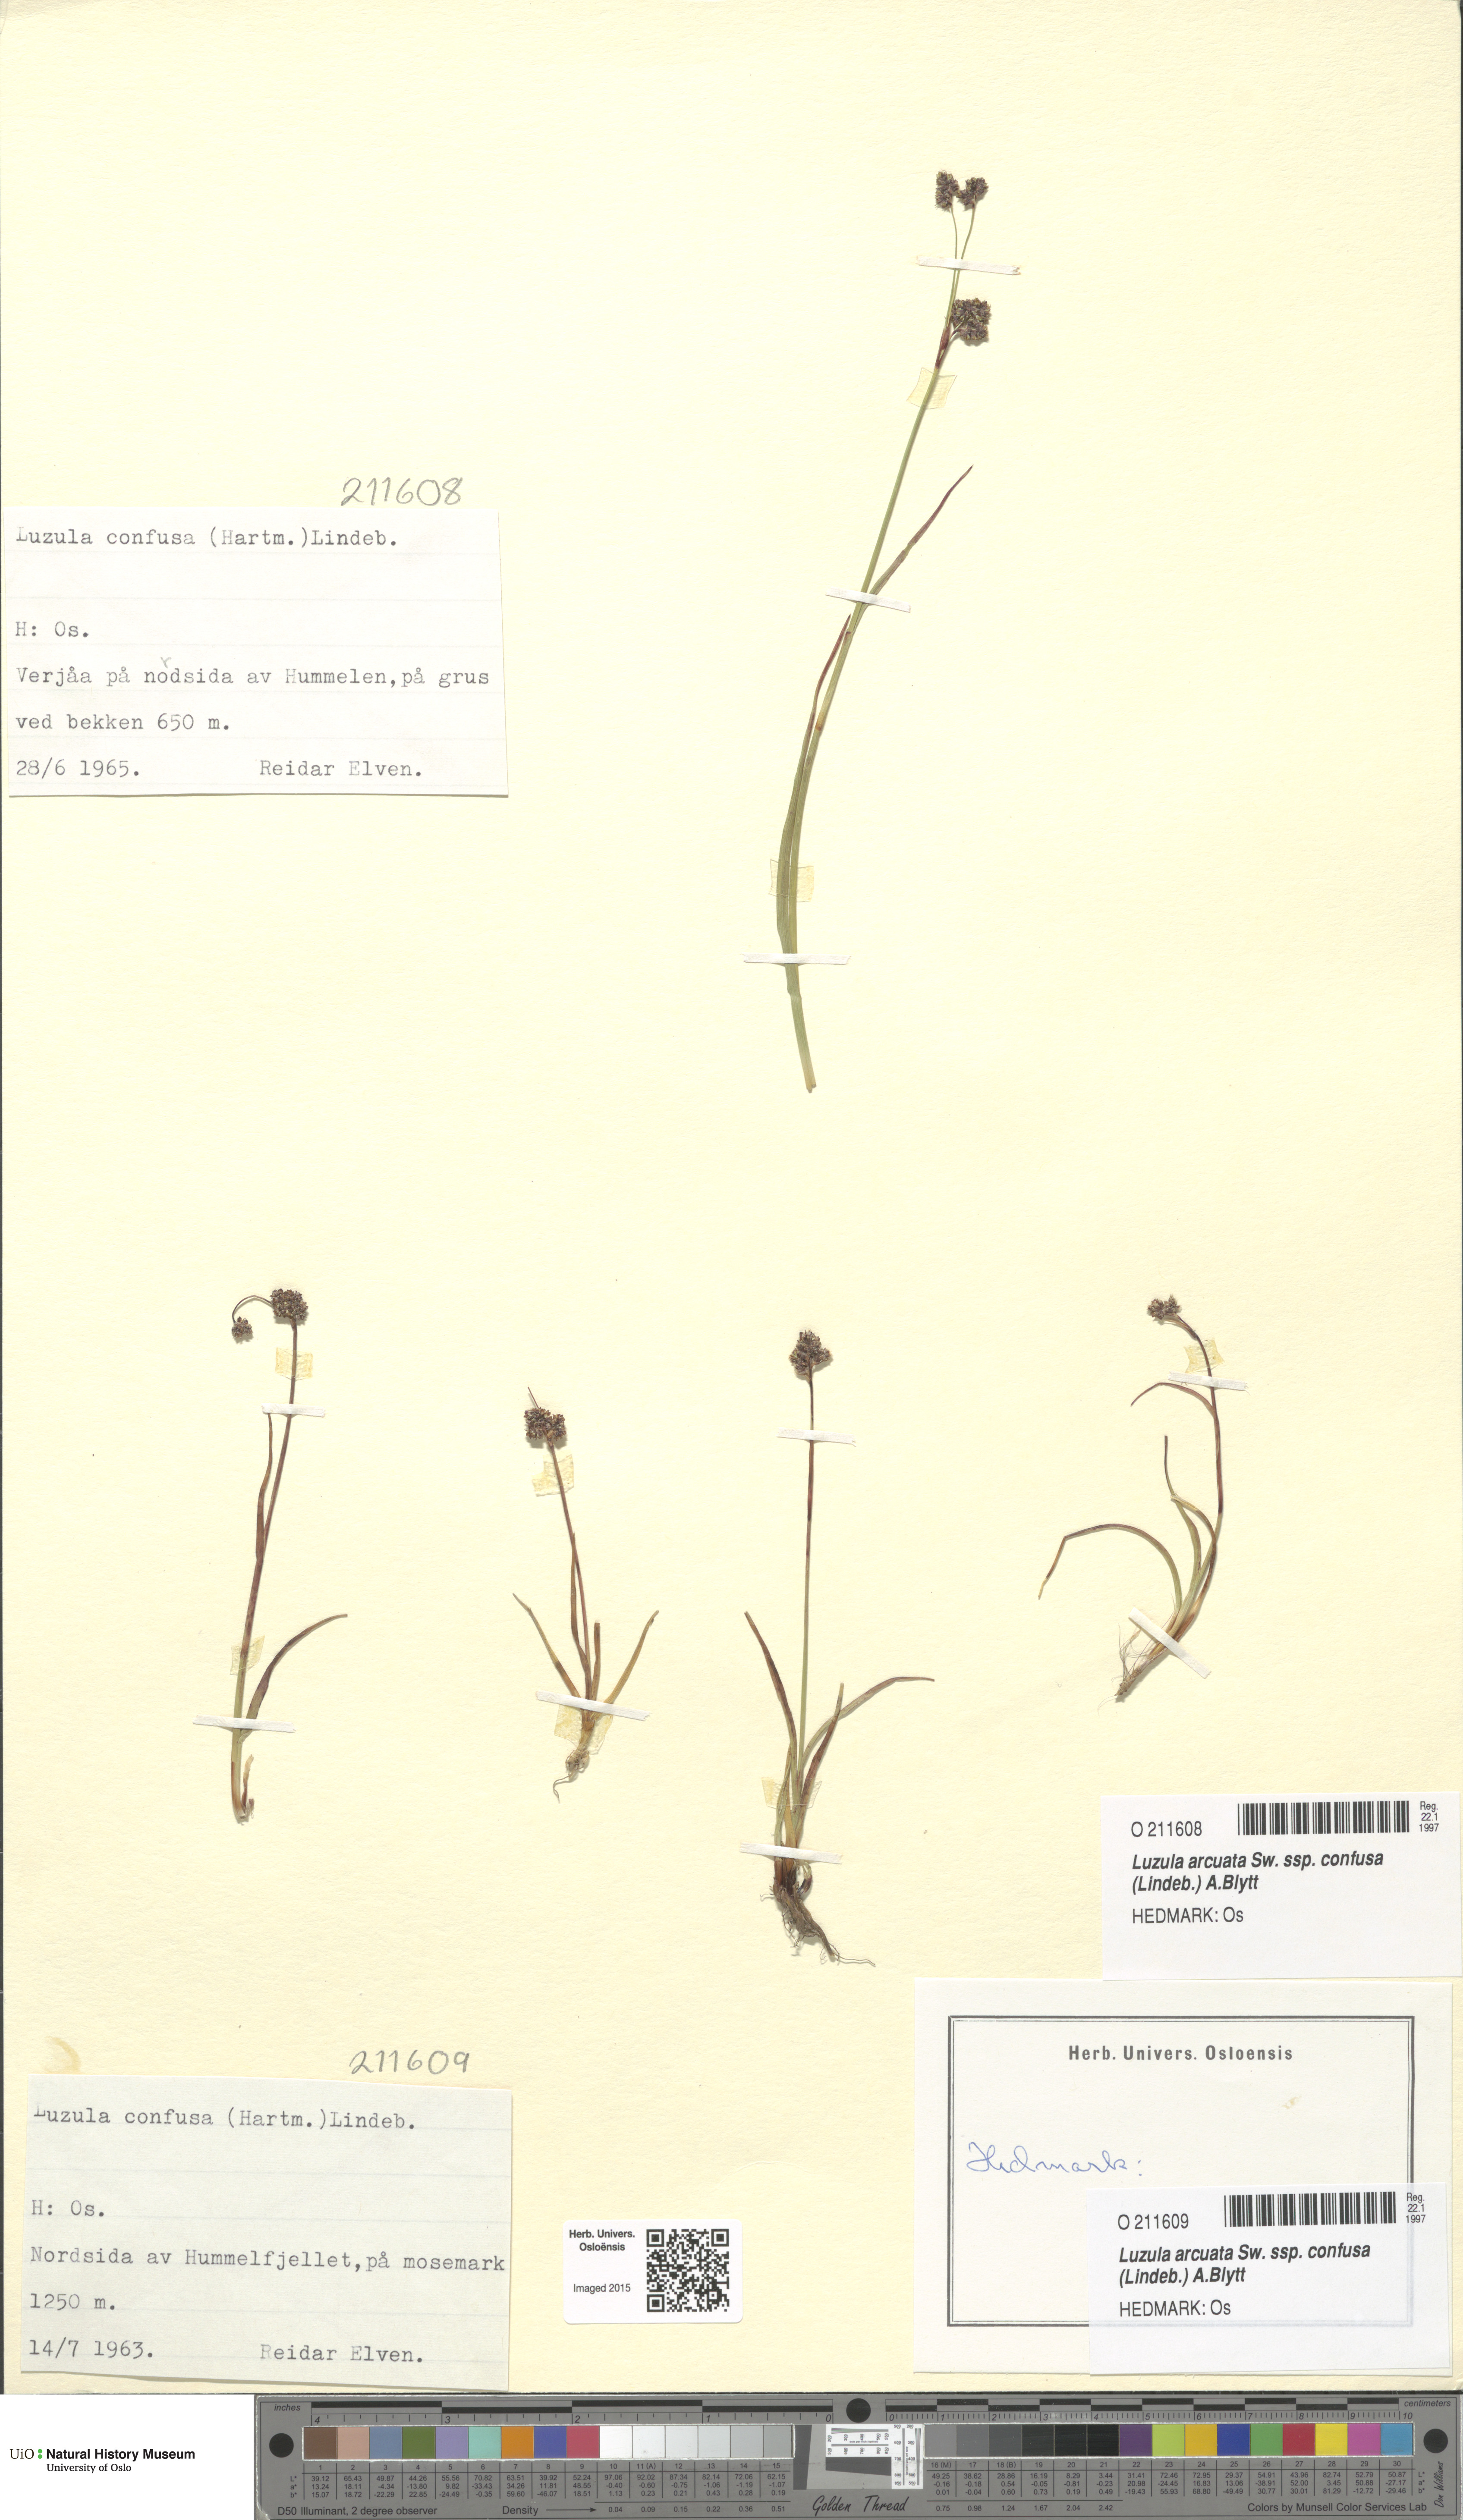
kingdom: Plantae
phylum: Tracheophyta
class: Liliopsida
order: Poales
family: Juncaceae
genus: Luzula
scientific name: Luzula confusa
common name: Northern wood rush
